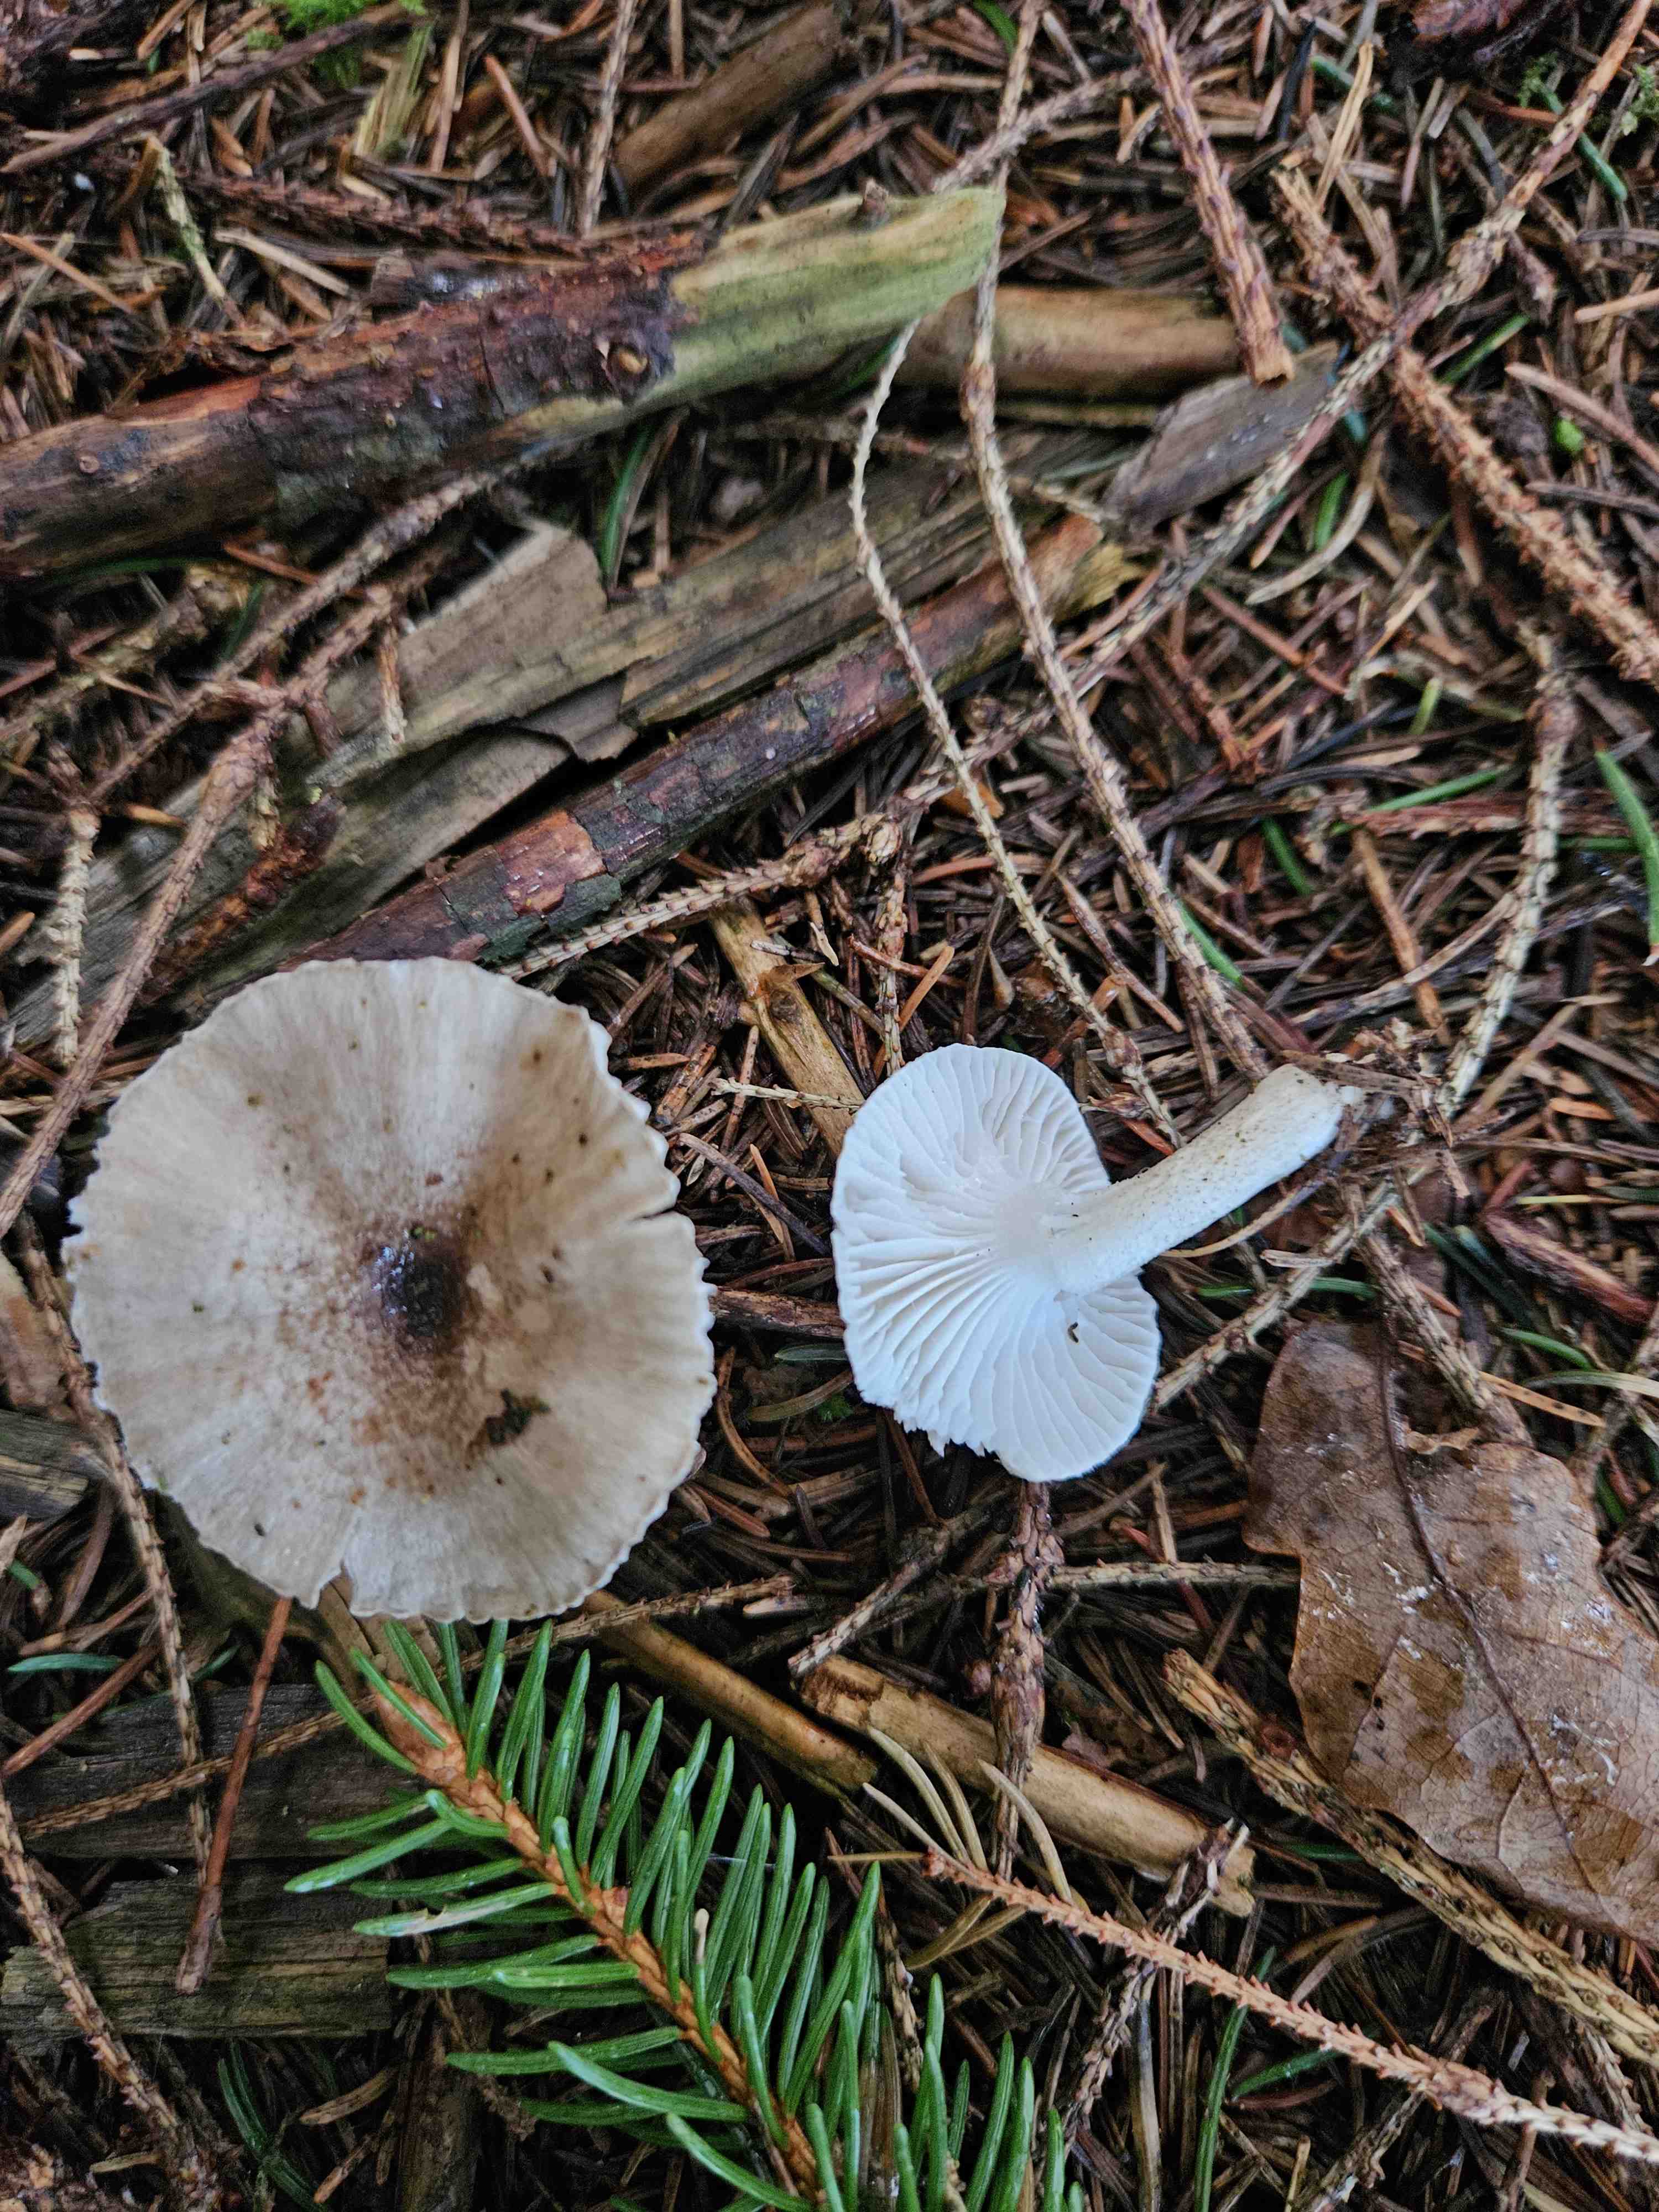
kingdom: Fungi
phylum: Basidiomycota
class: Agaricomycetes
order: Agaricales
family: Hygrophoraceae
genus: Hygrophorus
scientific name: Hygrophorus pustulatus
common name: mørkprikket sneglehat
